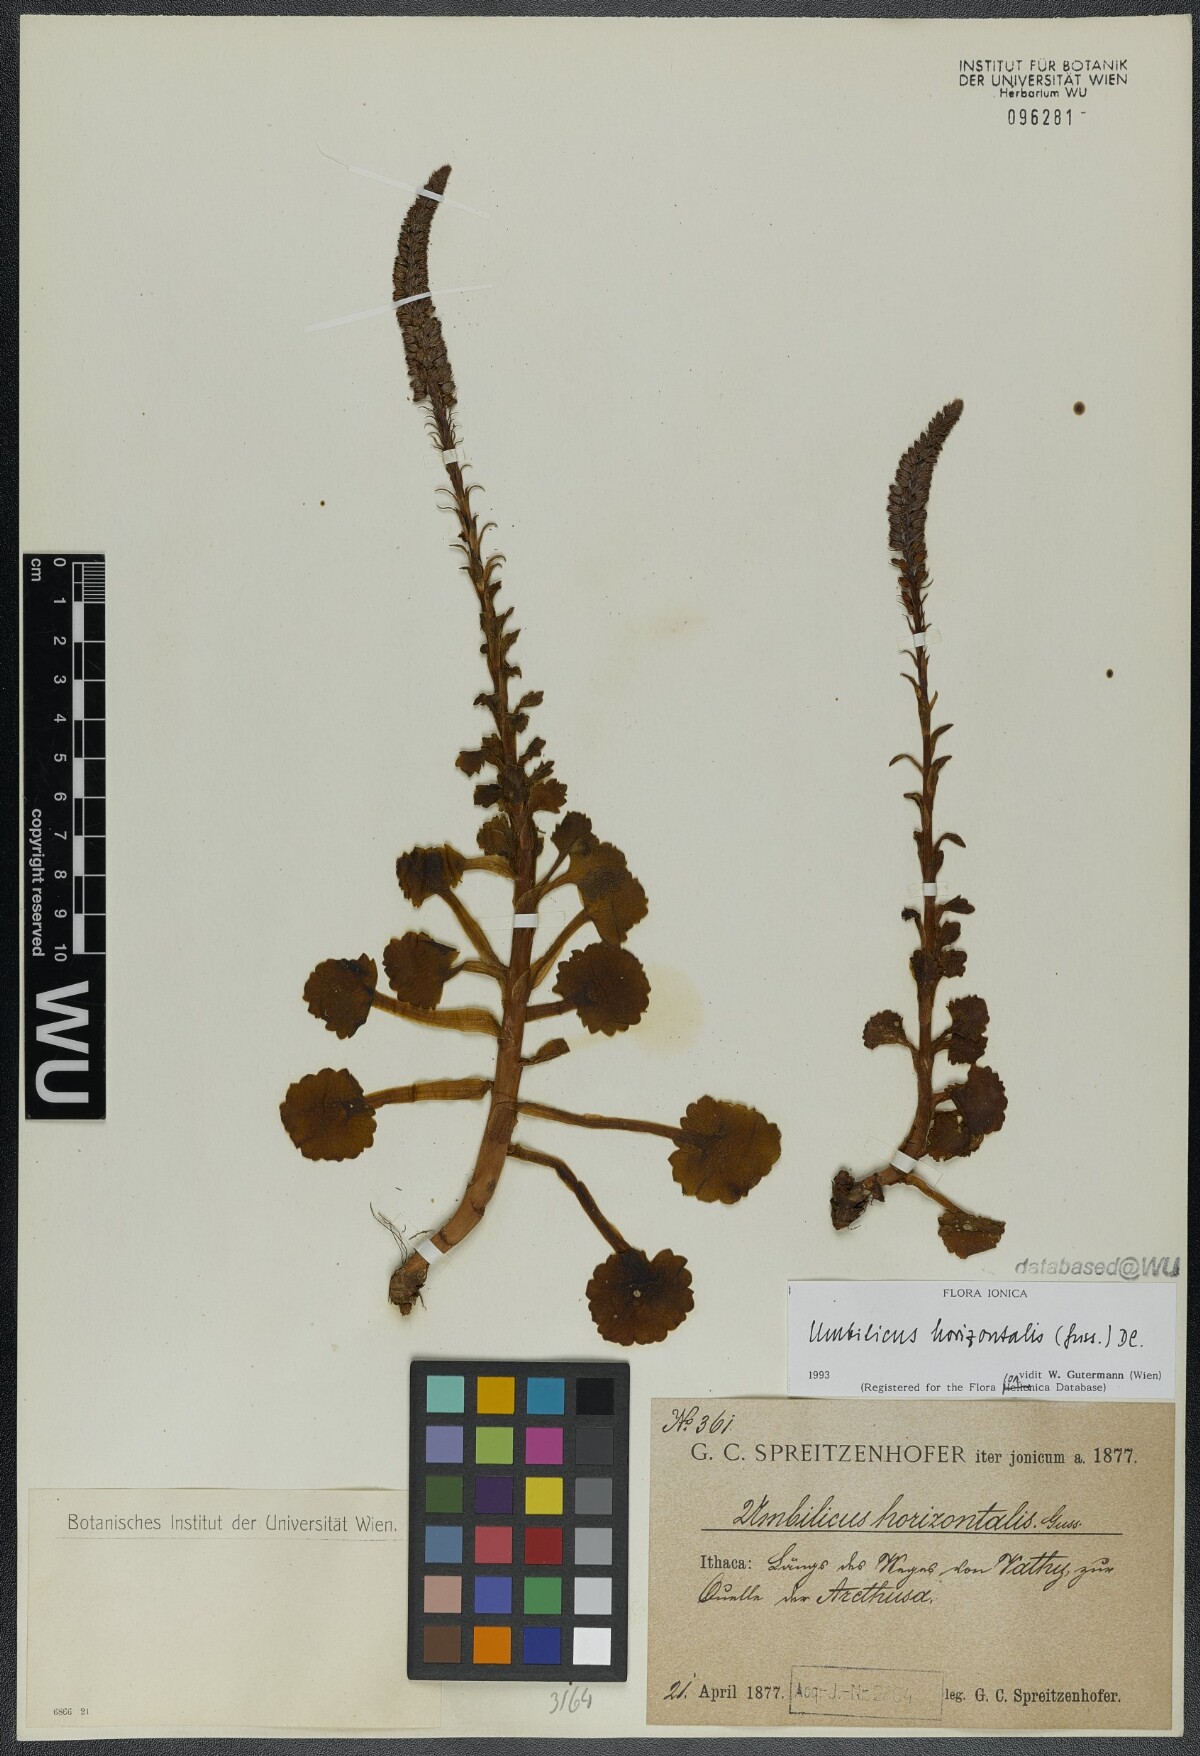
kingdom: Plantae
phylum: Tracheophyta
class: Magnoliopsida
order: Saxifragales
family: Crassulaceae
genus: Umbilicus
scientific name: Umbilicus horizontalis
